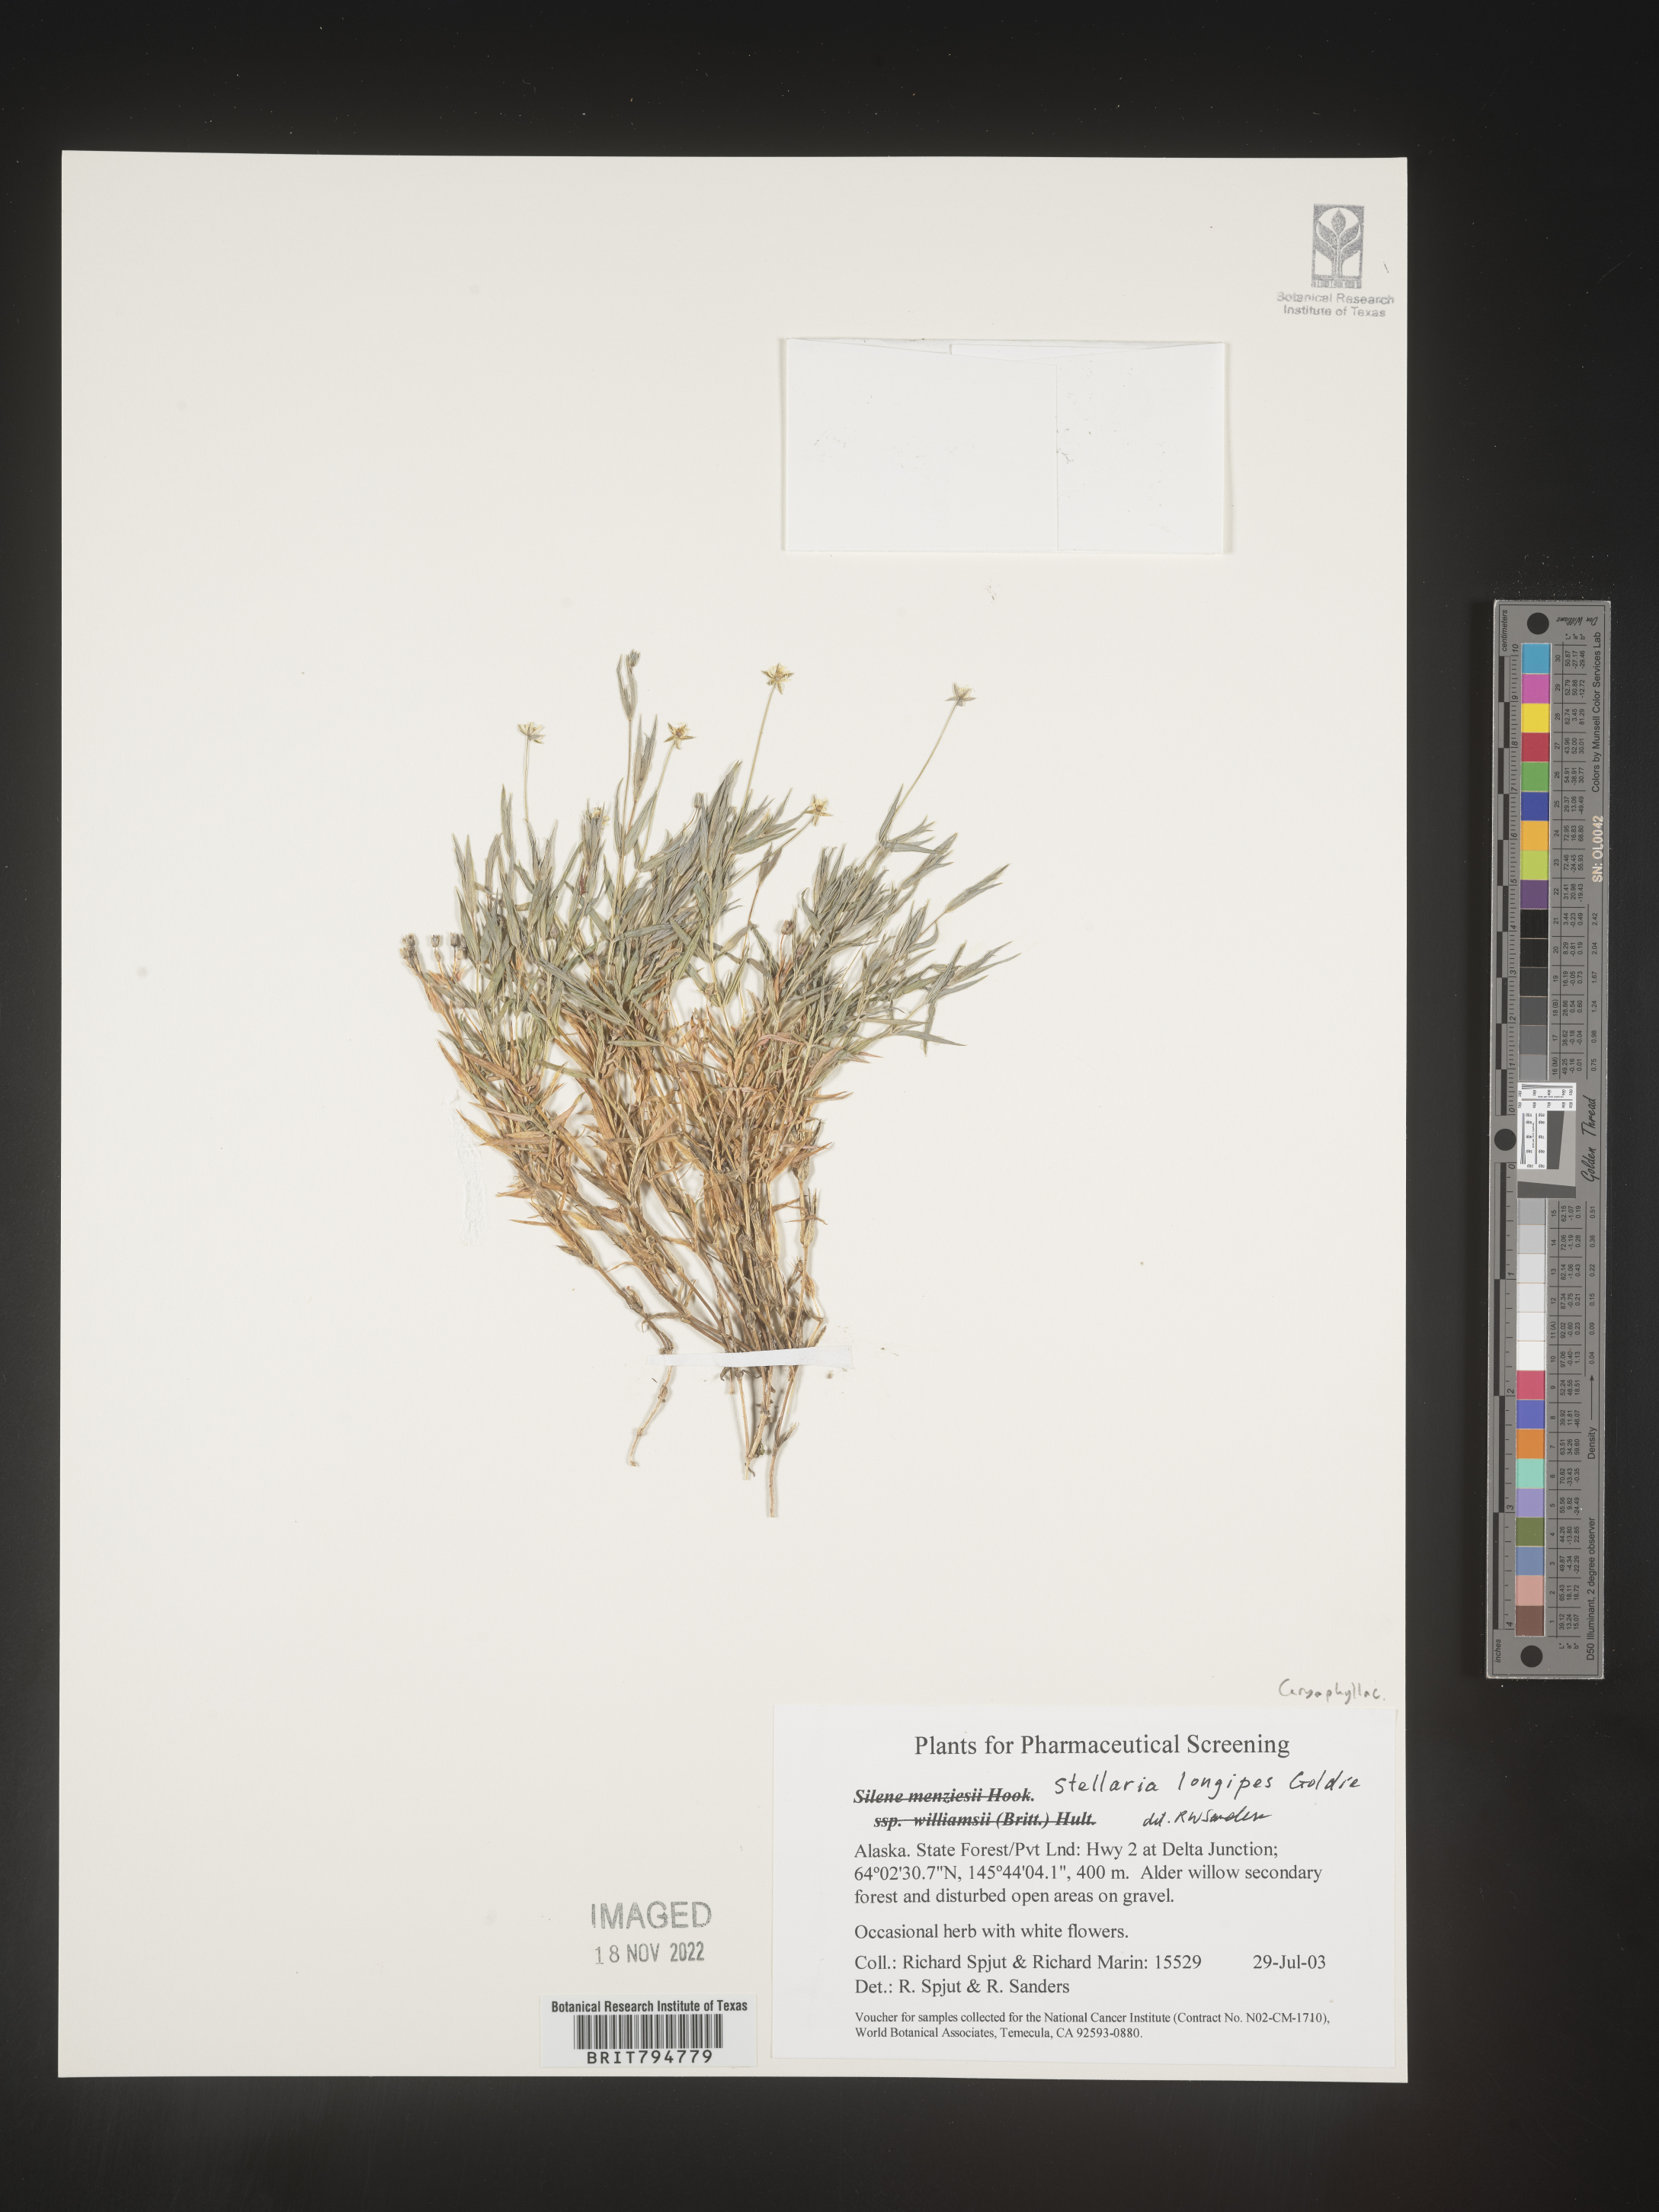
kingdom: Plantae
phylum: Tracheophyta
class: Magnoliopsida
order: Caryophyllales
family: Caryophyllaceae
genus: Stellaria
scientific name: Stellaria longipes
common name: Goldie's starwort
